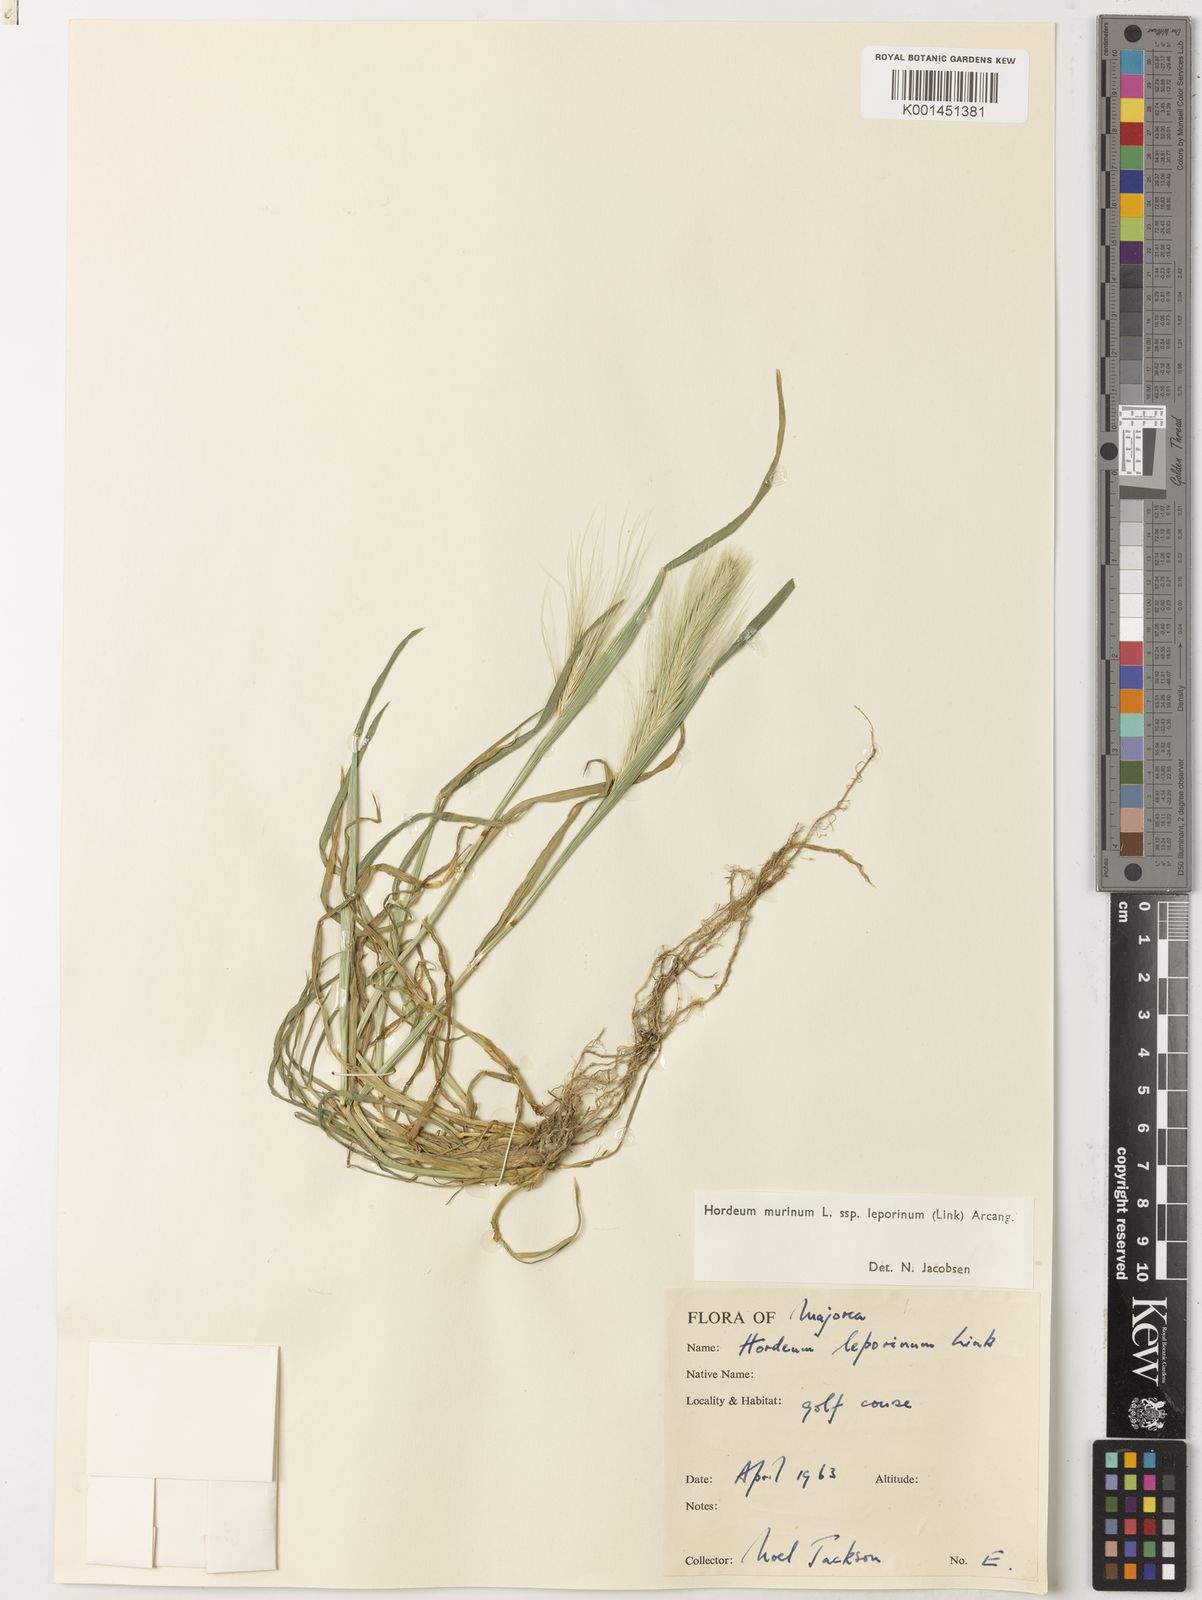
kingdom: Plantae
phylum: Tracheophyta
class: Liliopsida
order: Poales
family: Poaceae
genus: Hordeum
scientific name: Hordeum murinum
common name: Wall barley
